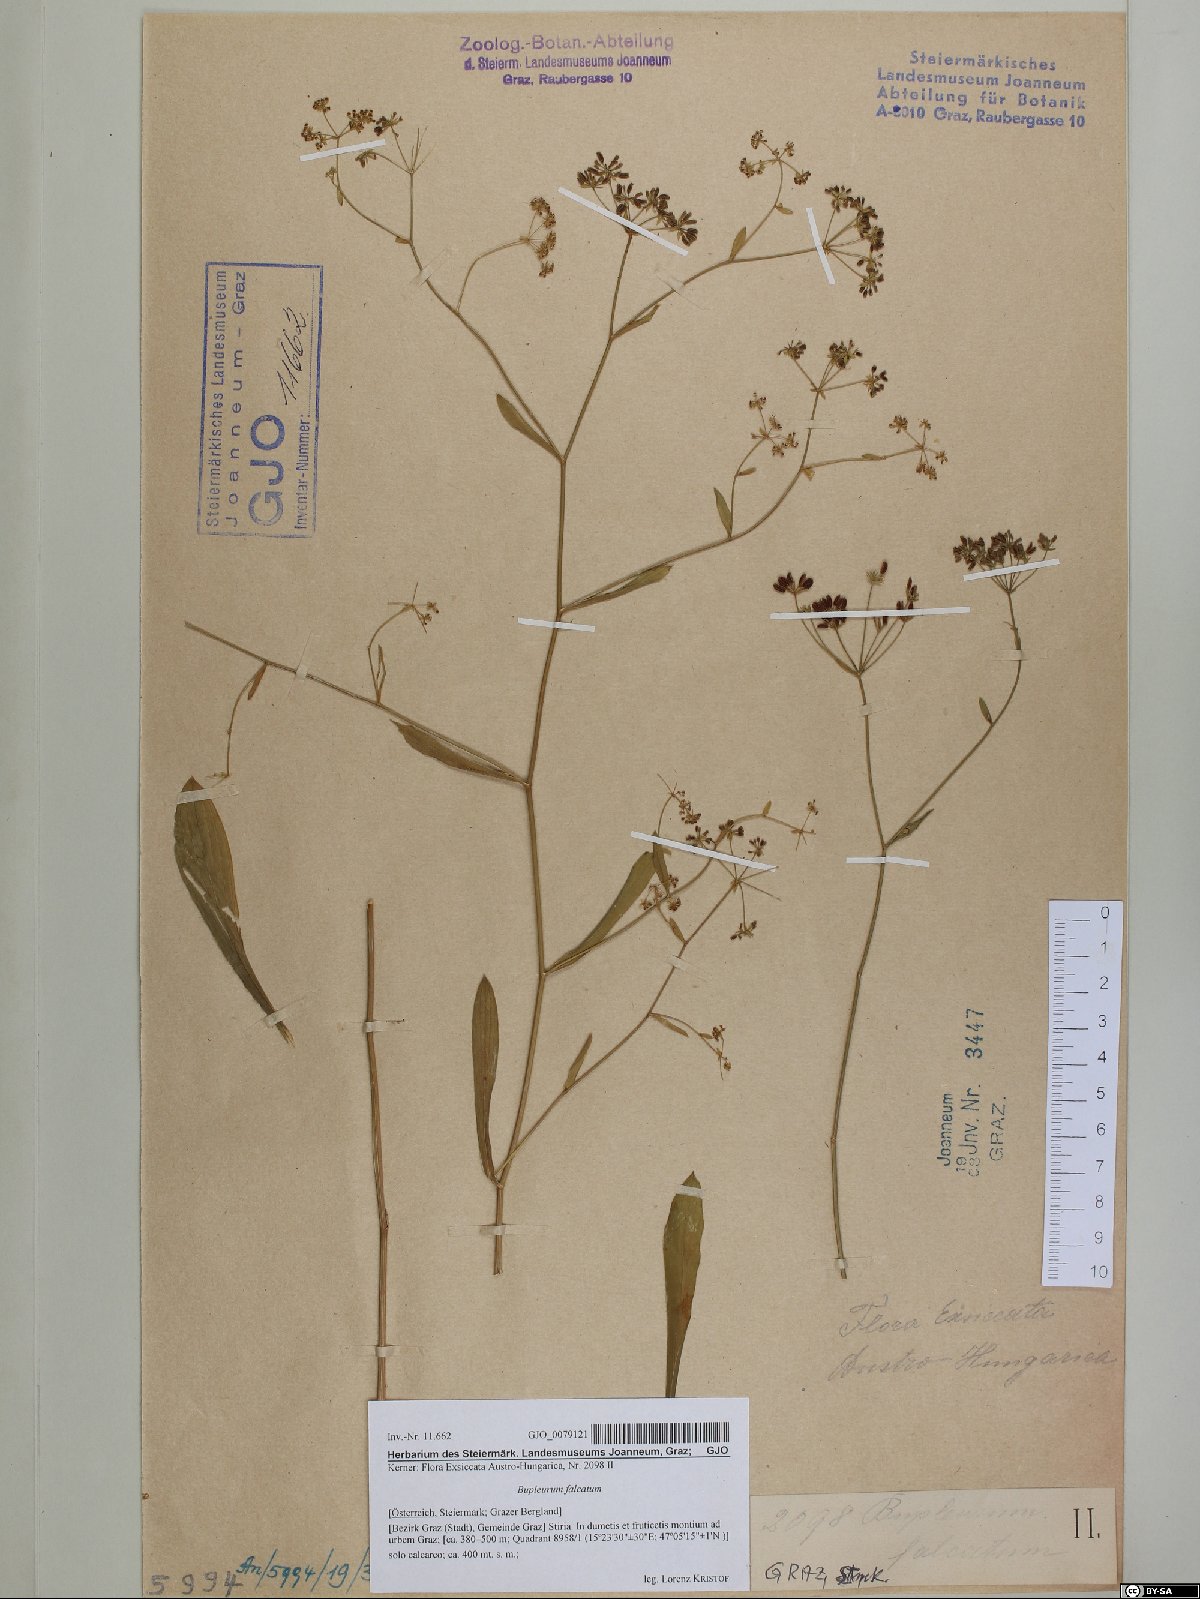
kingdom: Plantae
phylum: Tracheophyta
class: Magnoliopsida
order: Apiales
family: Apiaceae
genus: Bupleurum
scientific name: Bupleurum falcatum
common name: Sickle-leaved hare's-ear
